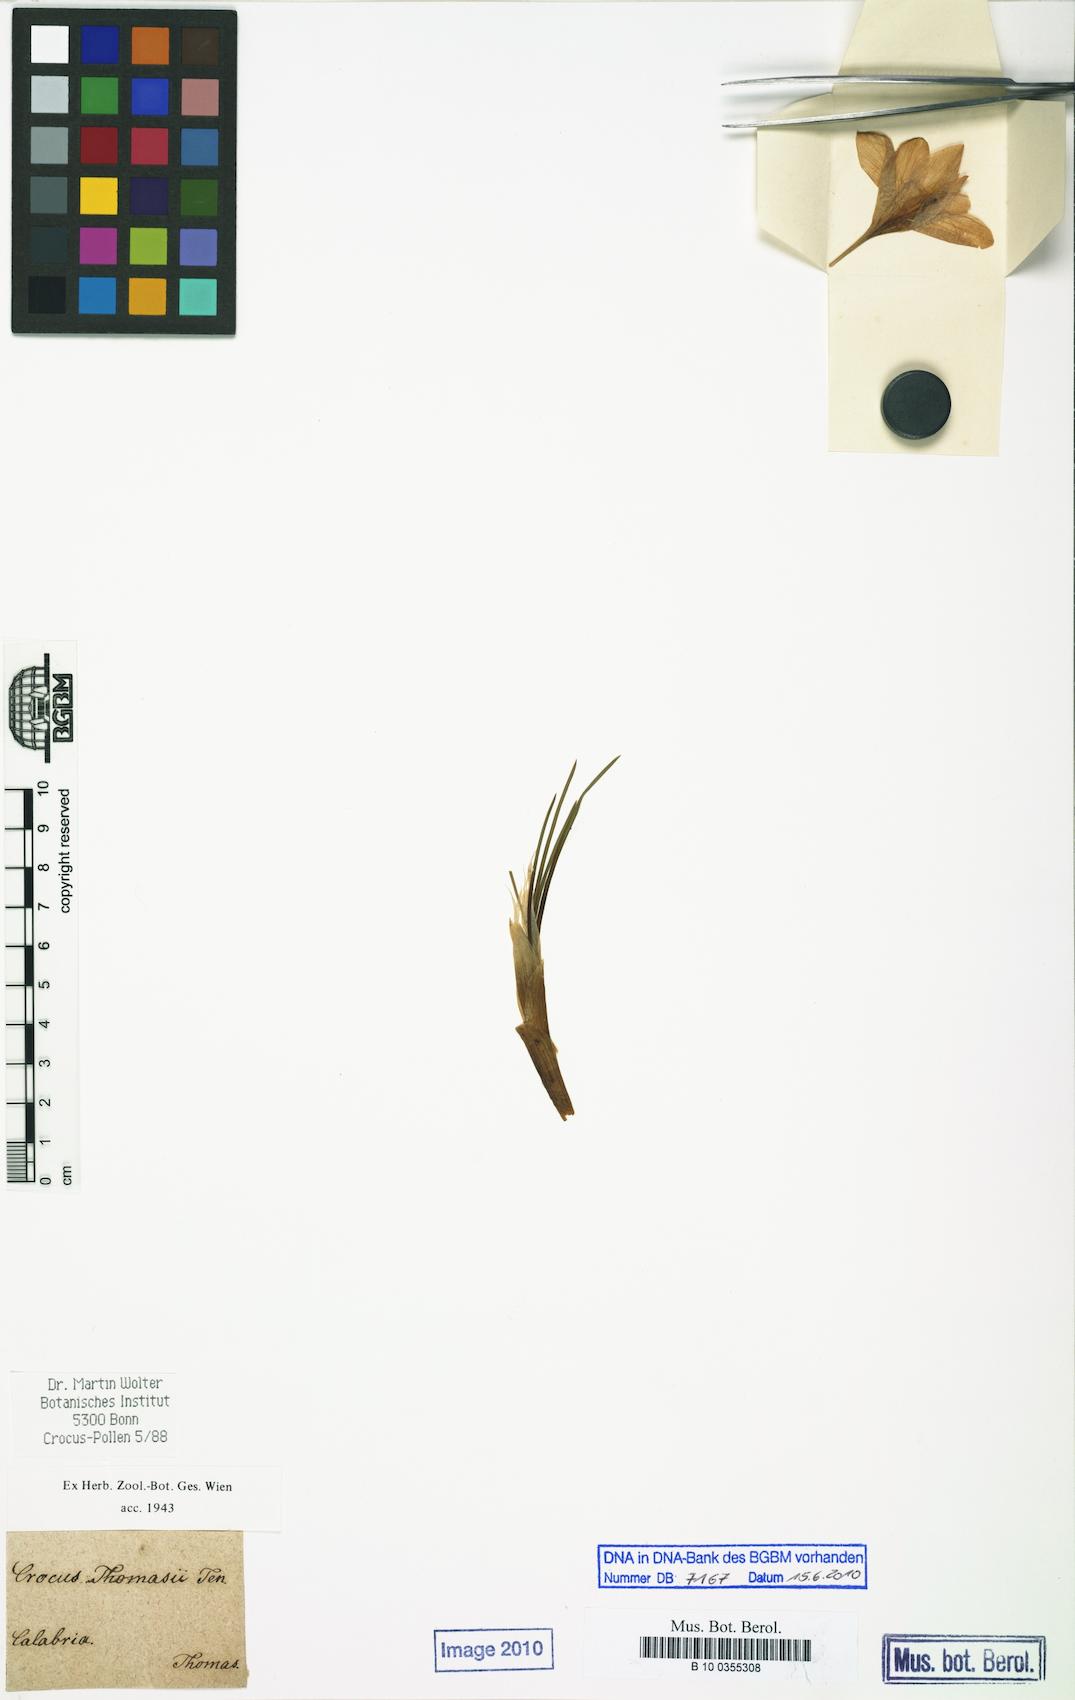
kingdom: Plantae
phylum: Tracheophyta
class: Liliopsida
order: Asparagales
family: Iridaceae
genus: Crocus
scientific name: Crocus thomasii
